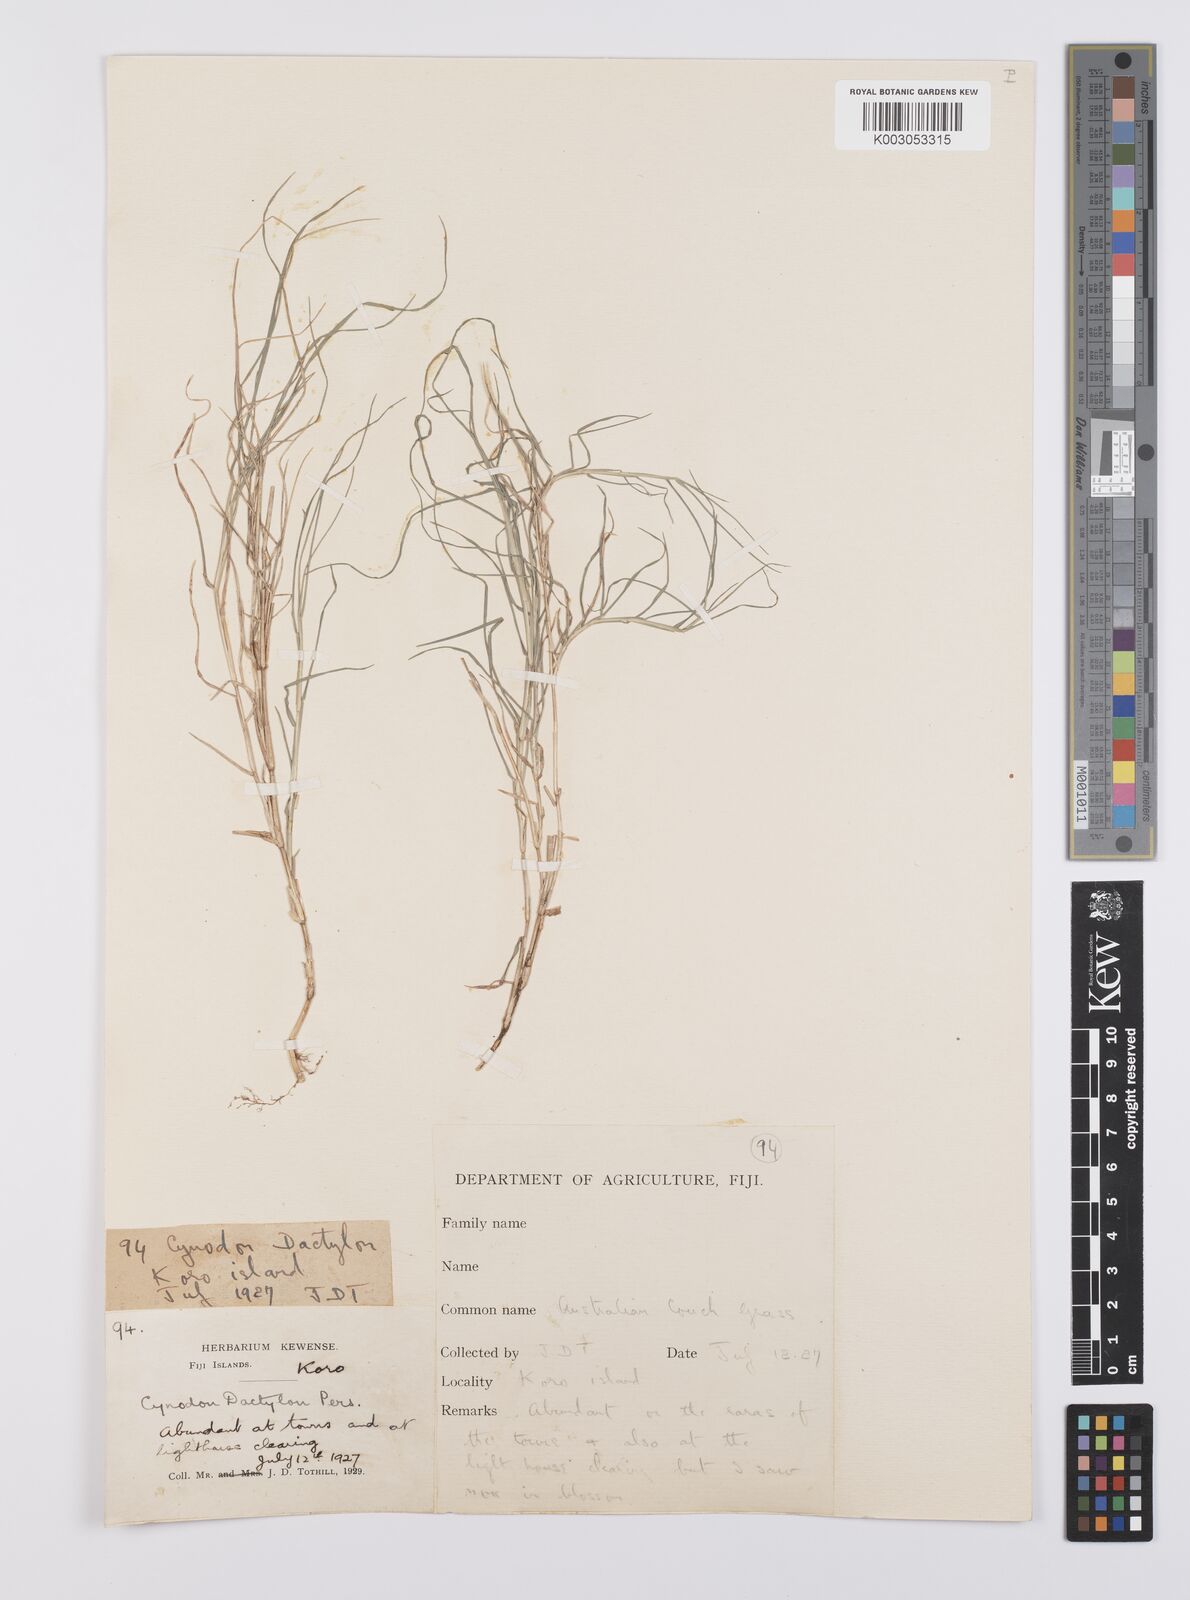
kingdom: Plantae
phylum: Tracheophyta
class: Liliopsida
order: Poales
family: Poaceae
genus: Cynodon
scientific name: Cynodon dactylon
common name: Bermuda grass
